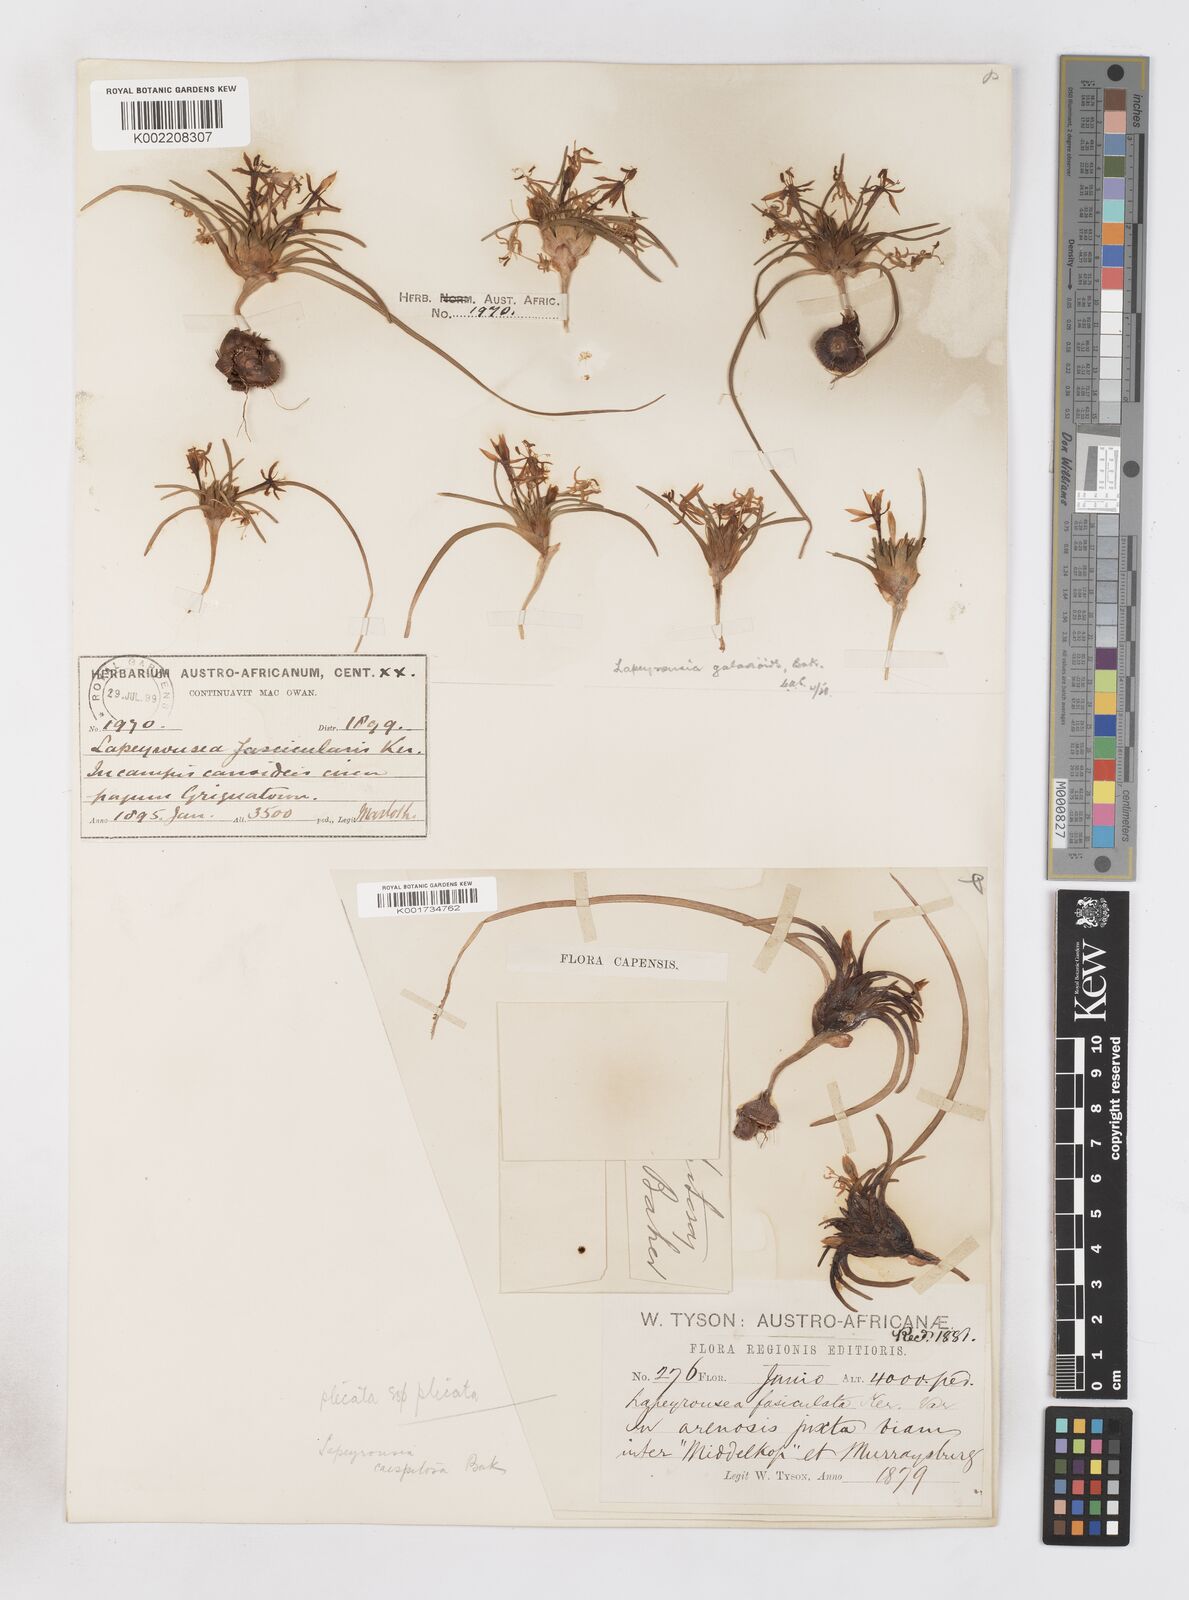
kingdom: Plantae
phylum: Tracheophyta
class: Liliopsida
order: Asparagales
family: Iridaceae
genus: Lapeirousia
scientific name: Lapeirousia plicata
